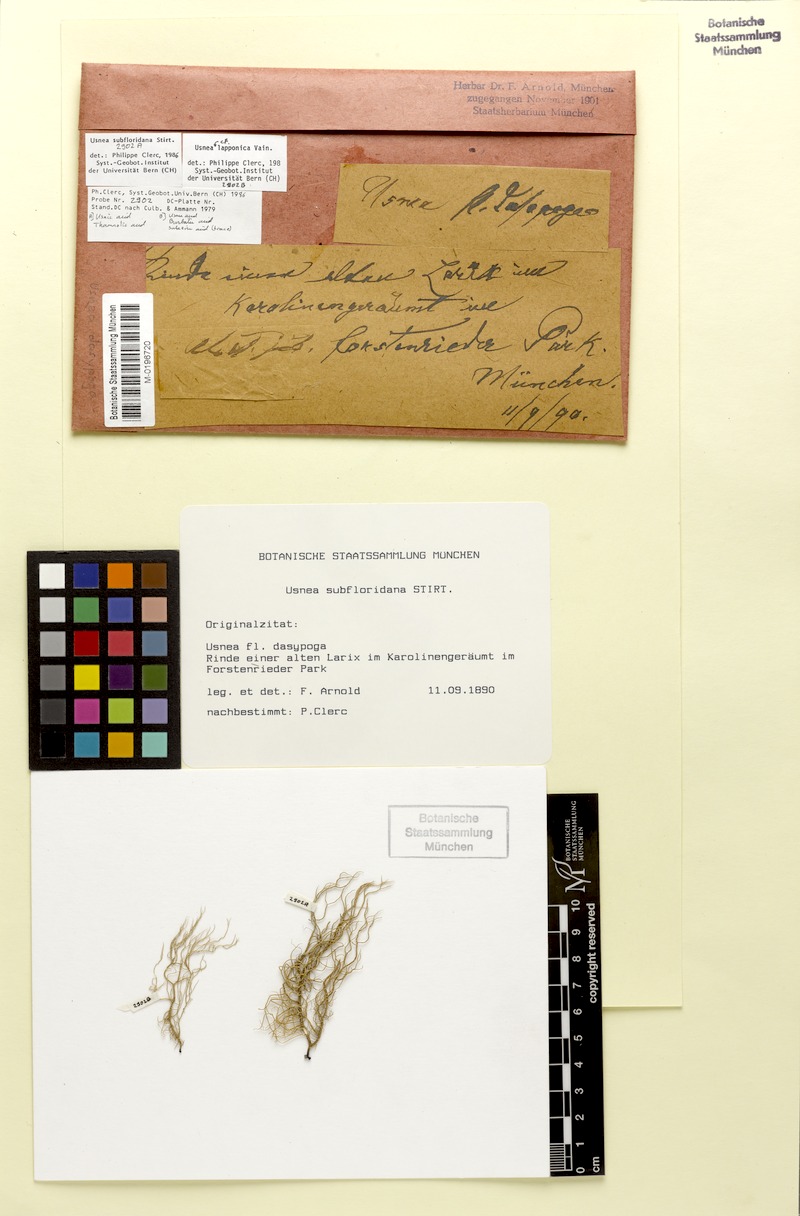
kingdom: Fungi
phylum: Ascomycota
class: Lecanoromycetes
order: Lecanorales
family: Parmeliaceae
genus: Usnea
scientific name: Usnea subfloridana
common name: Boreal beard lichen
